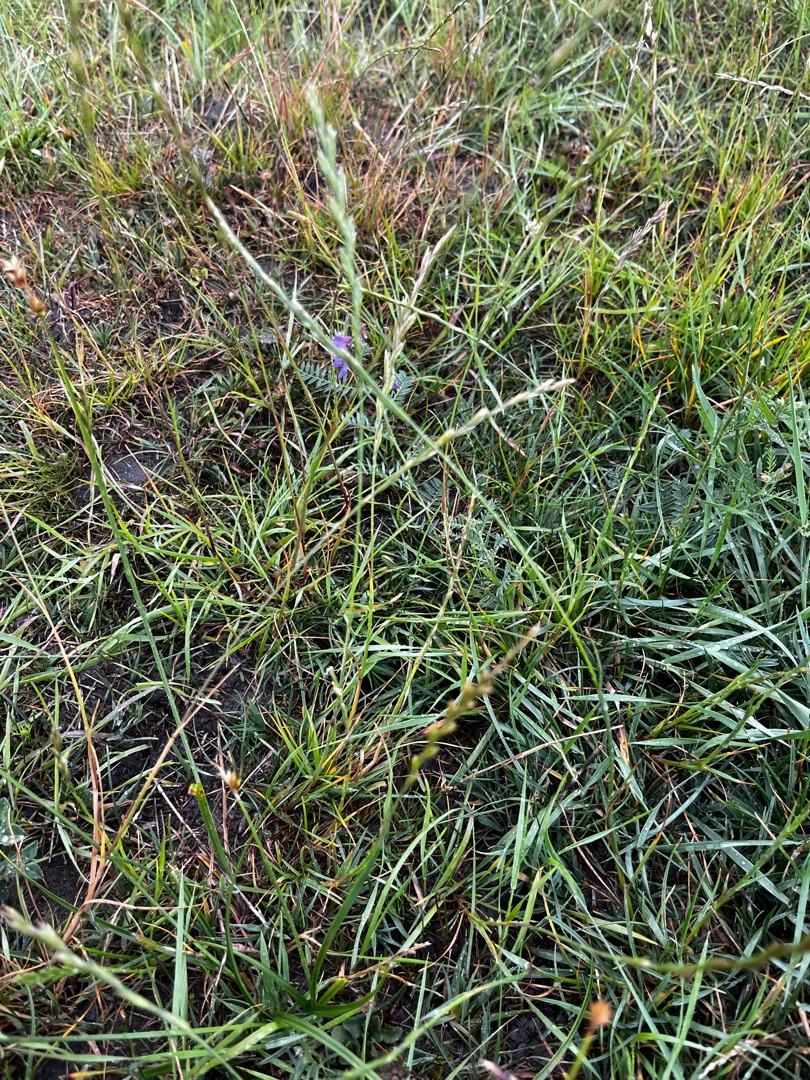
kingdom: Plantae
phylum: Tracheophyta
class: Liliopsida
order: Poales
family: Poaceae
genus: Lolium
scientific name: Lolium perenne
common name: Almindelig rajgræs
